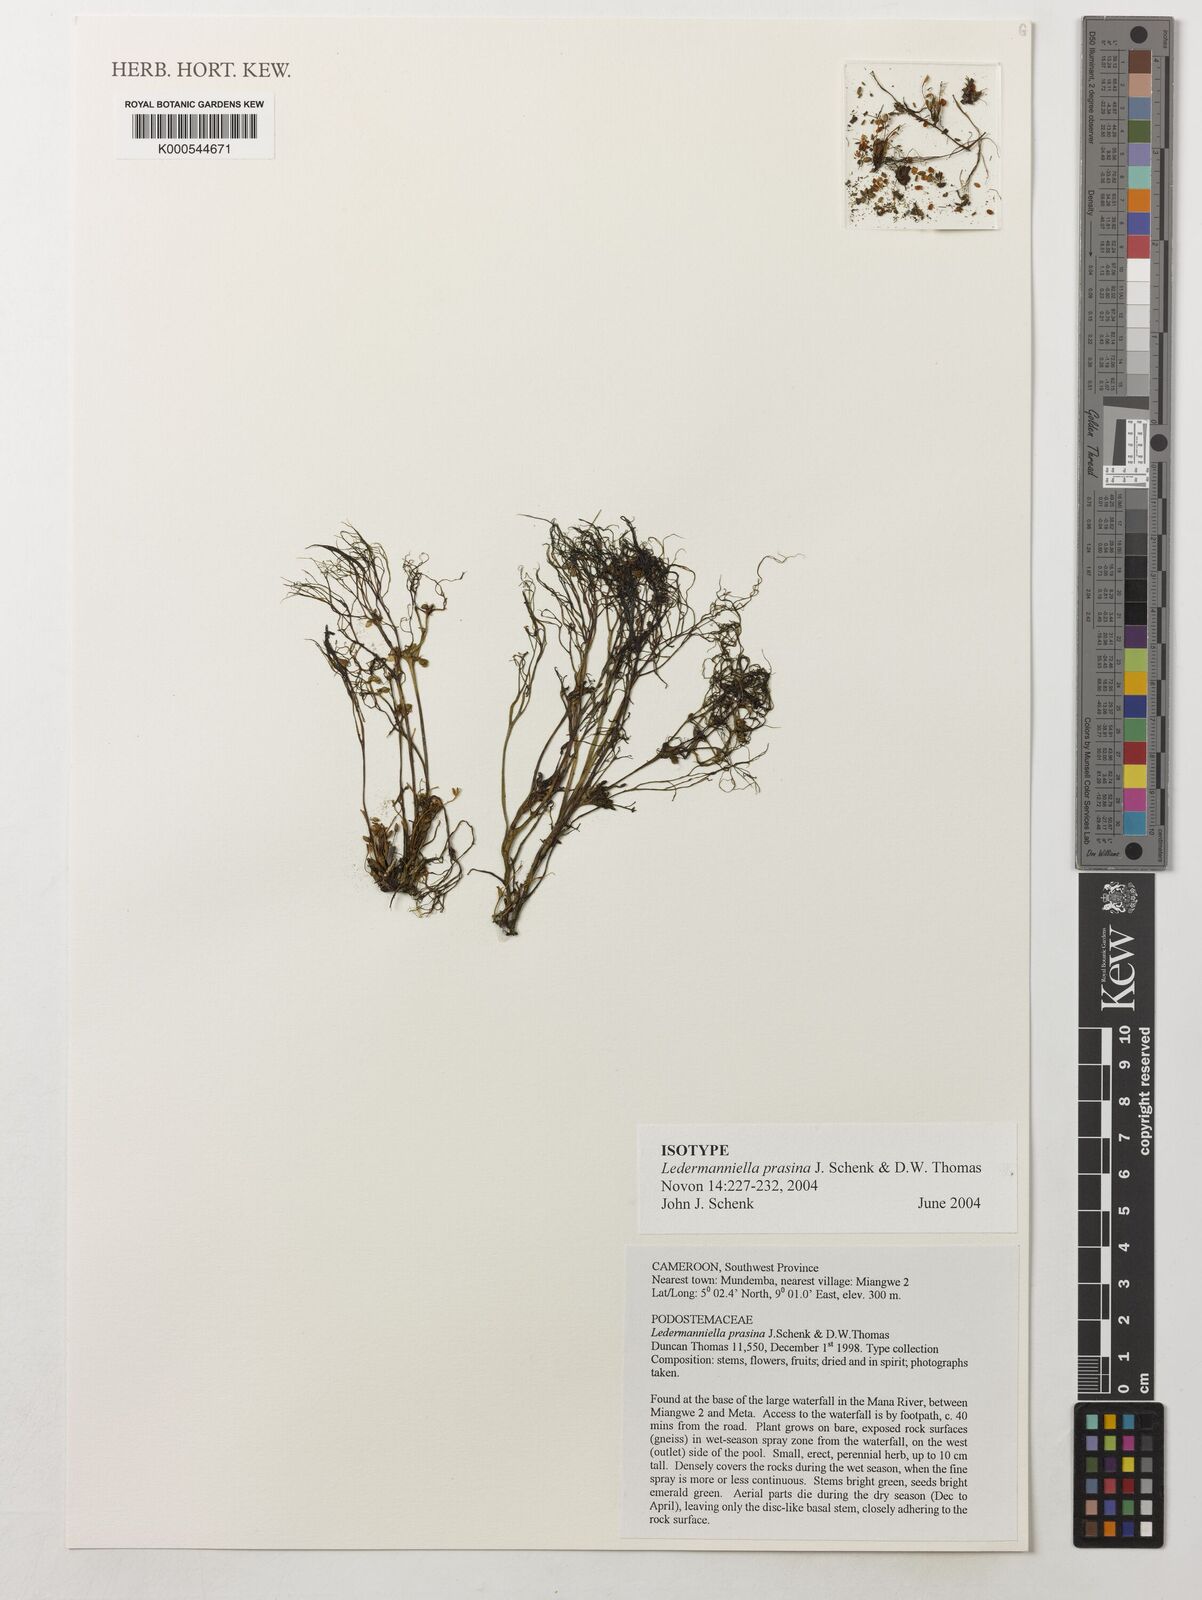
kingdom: Plantae
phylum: Tracheophyta
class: Magnoliopsida
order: Malpighiales
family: Podostemaceae
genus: Ledermanniella
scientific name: Ledermanniella prasina
